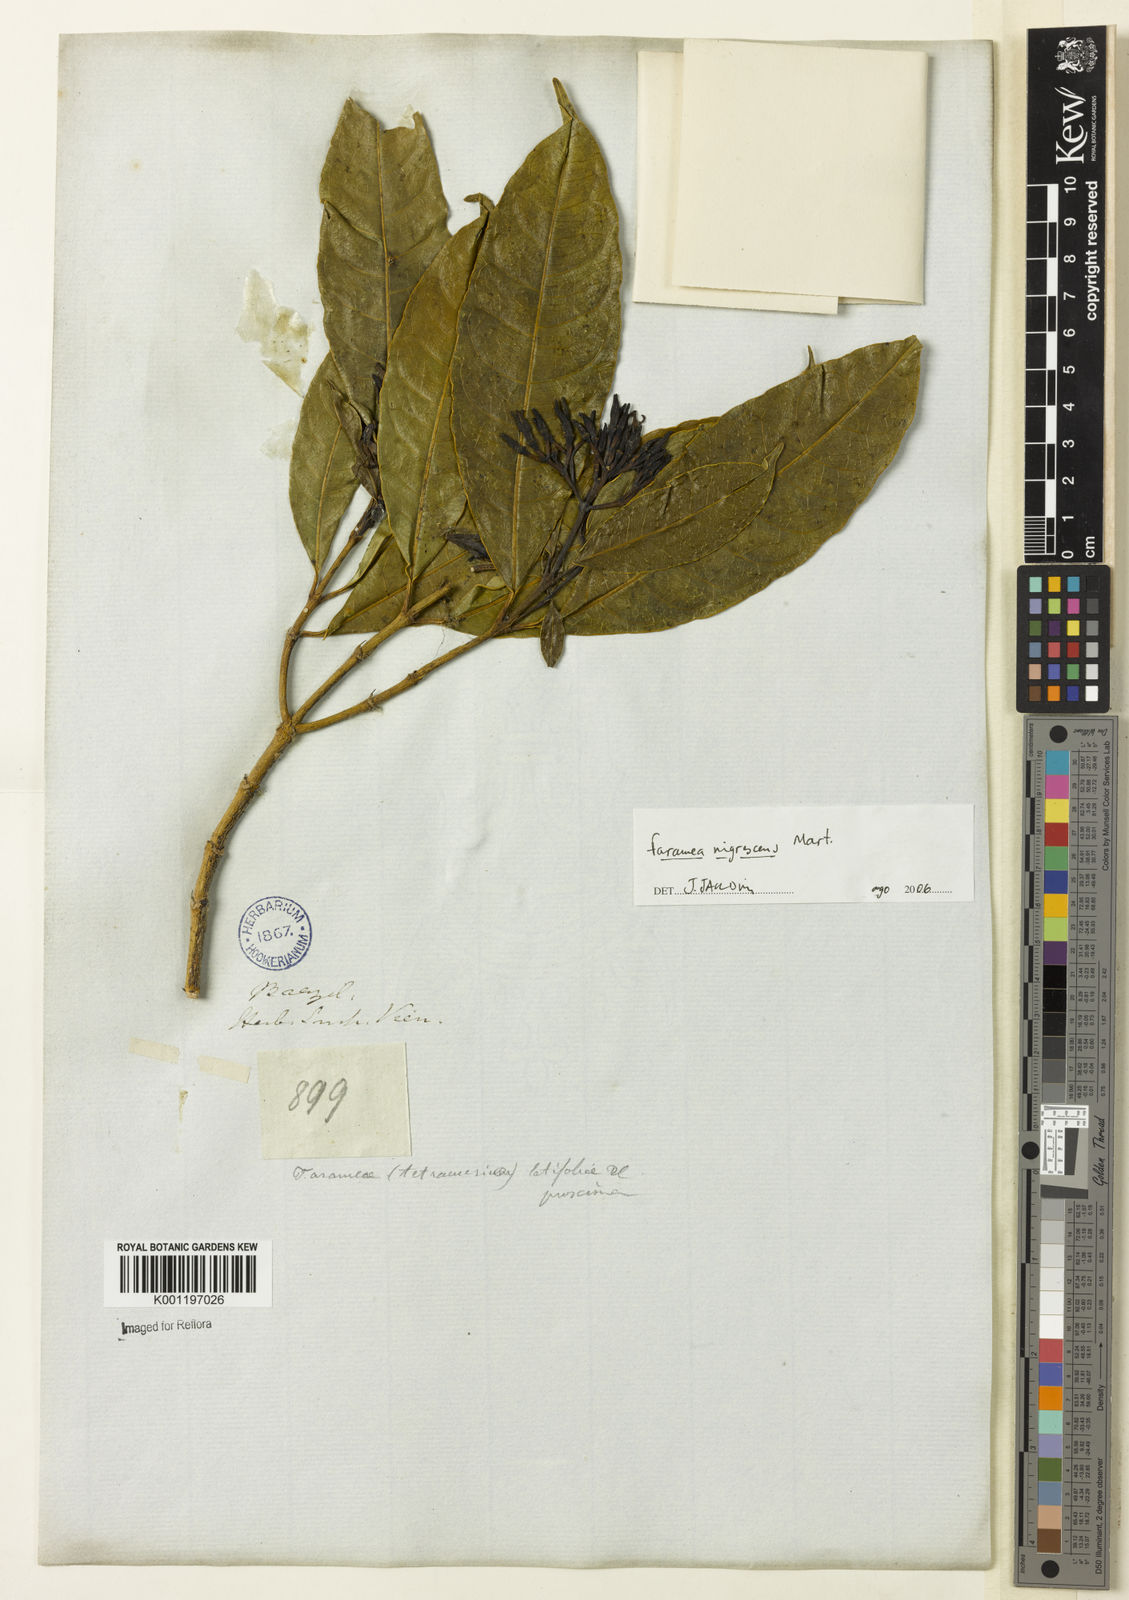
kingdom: Plantae
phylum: Tracheophyta
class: Magnoliopsida
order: Gentianales
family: Rubiaceae
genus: Faramea
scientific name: Faramea nigrescens
